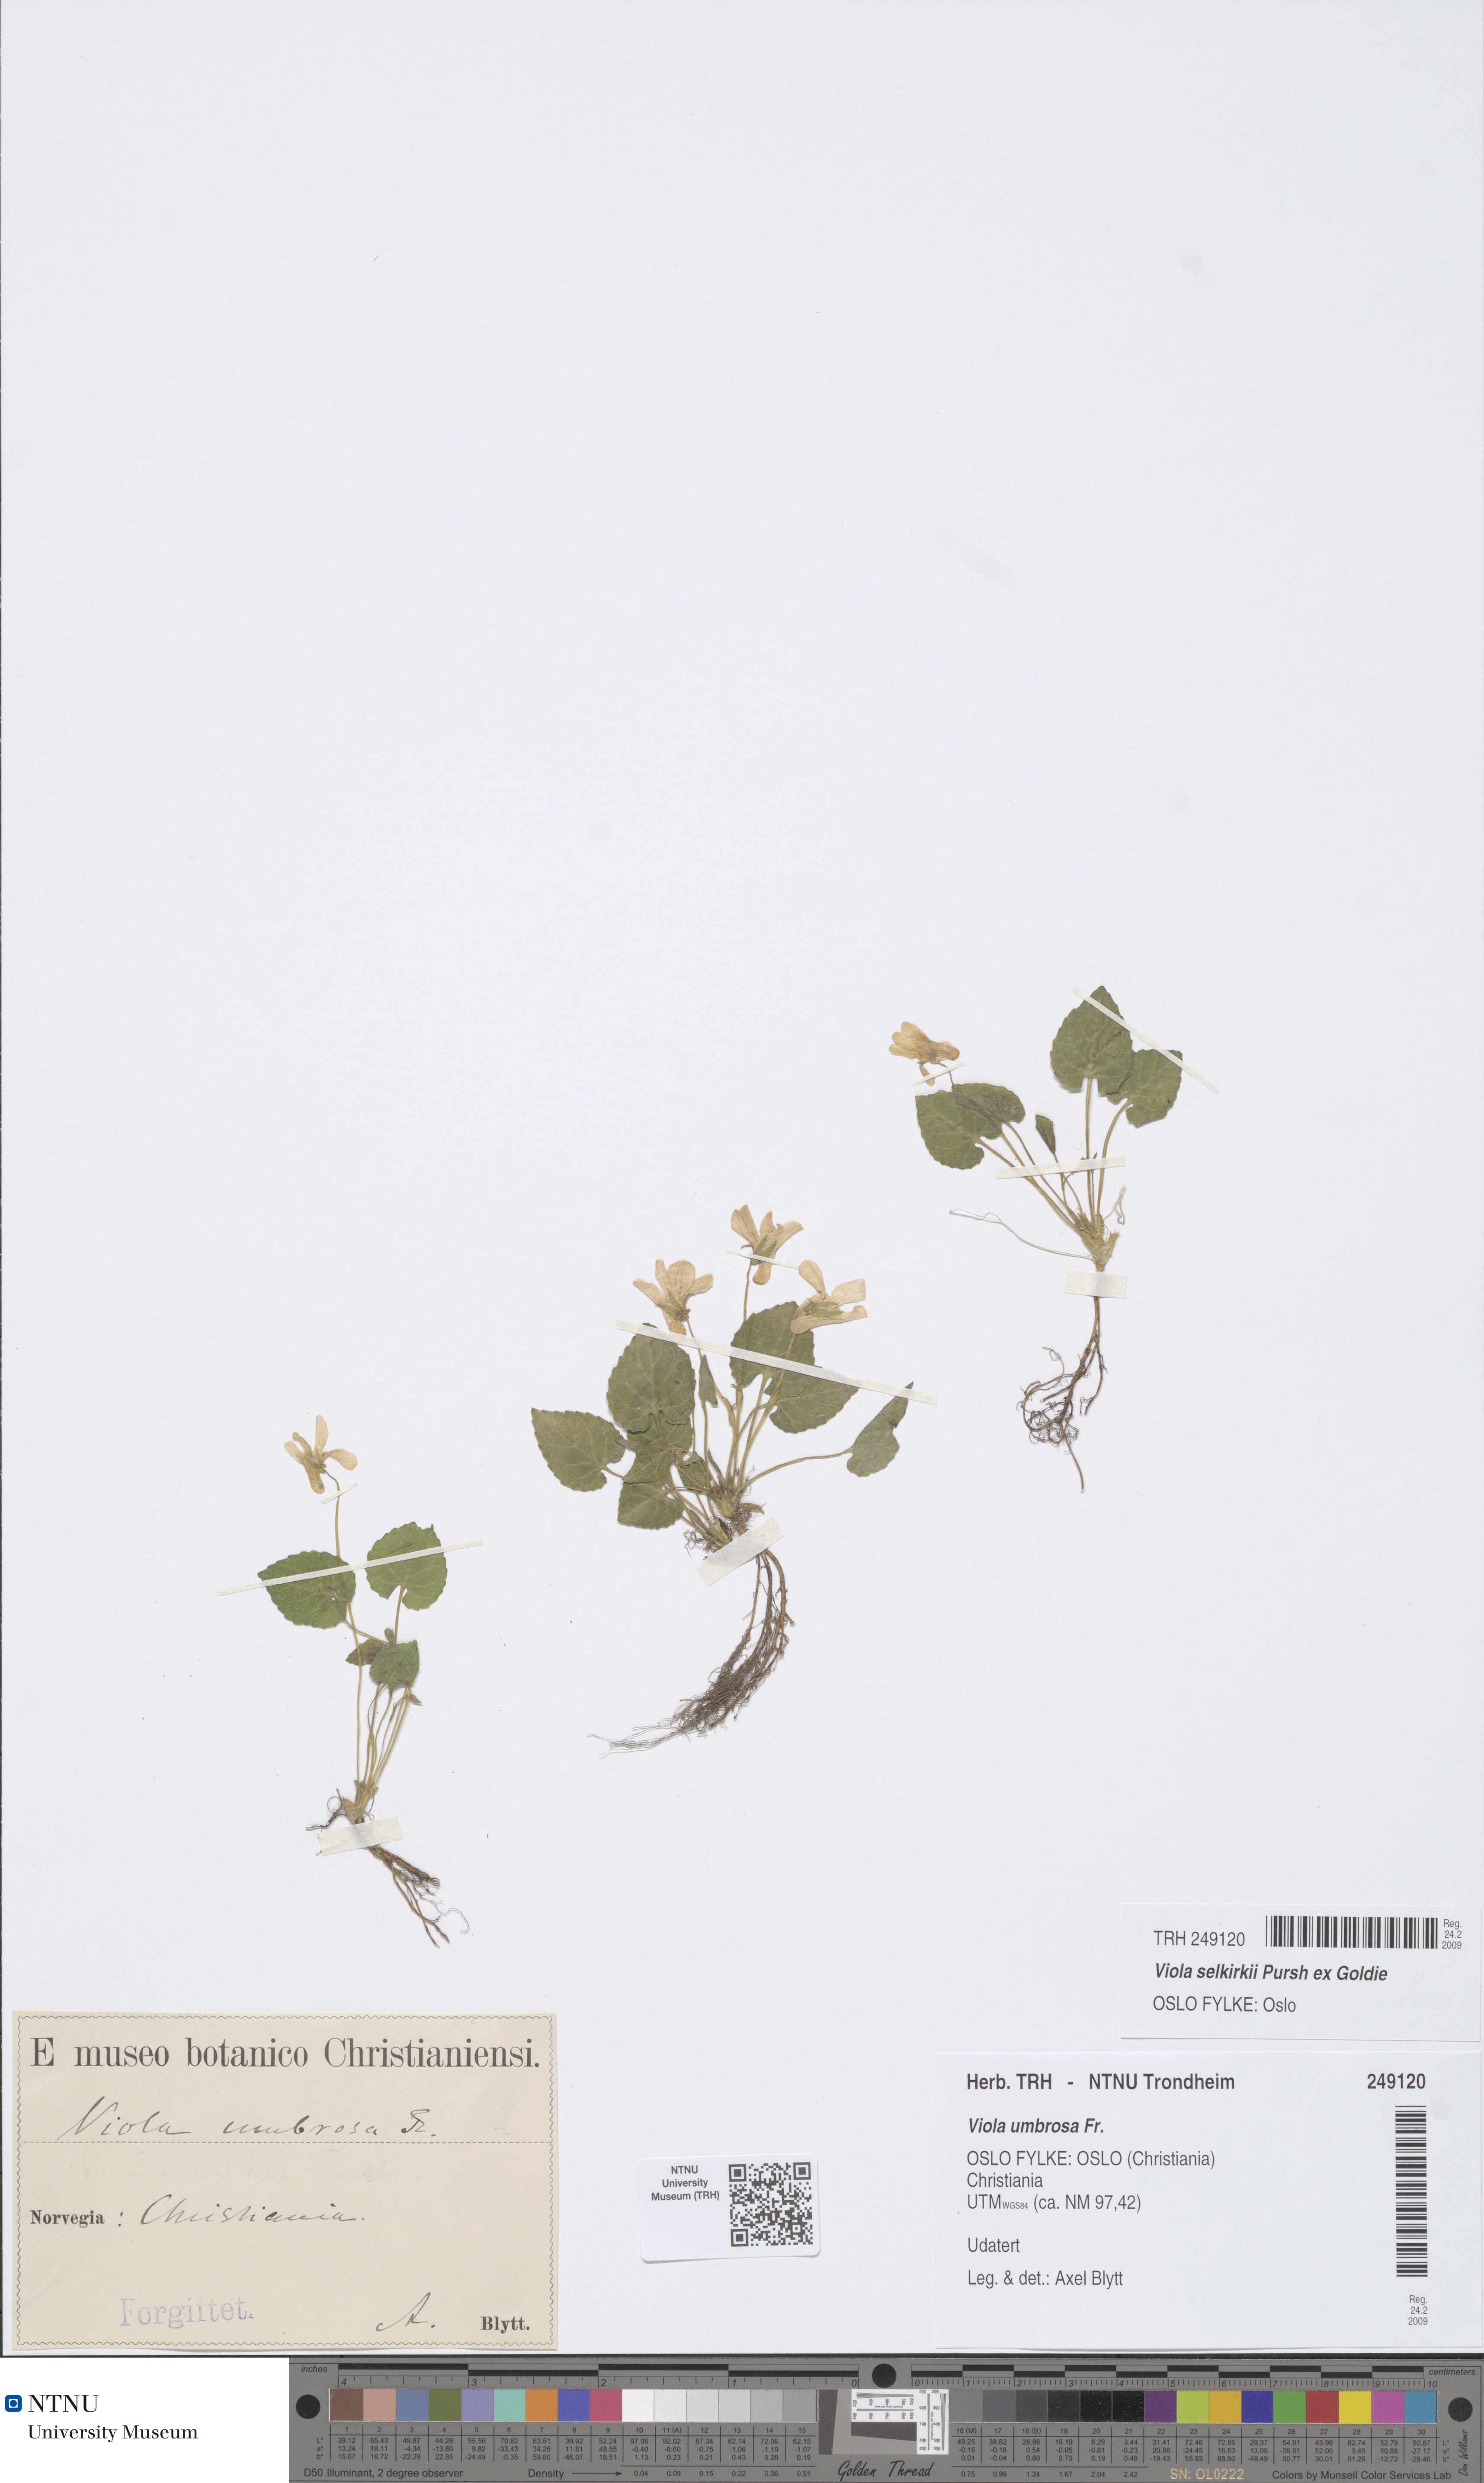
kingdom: Plantae
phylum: Tracheophyta
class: Magnoliopsida
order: Malpighiales
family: Violaceae
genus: Viola
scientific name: Viola selkirkii
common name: Selkirk's violet
